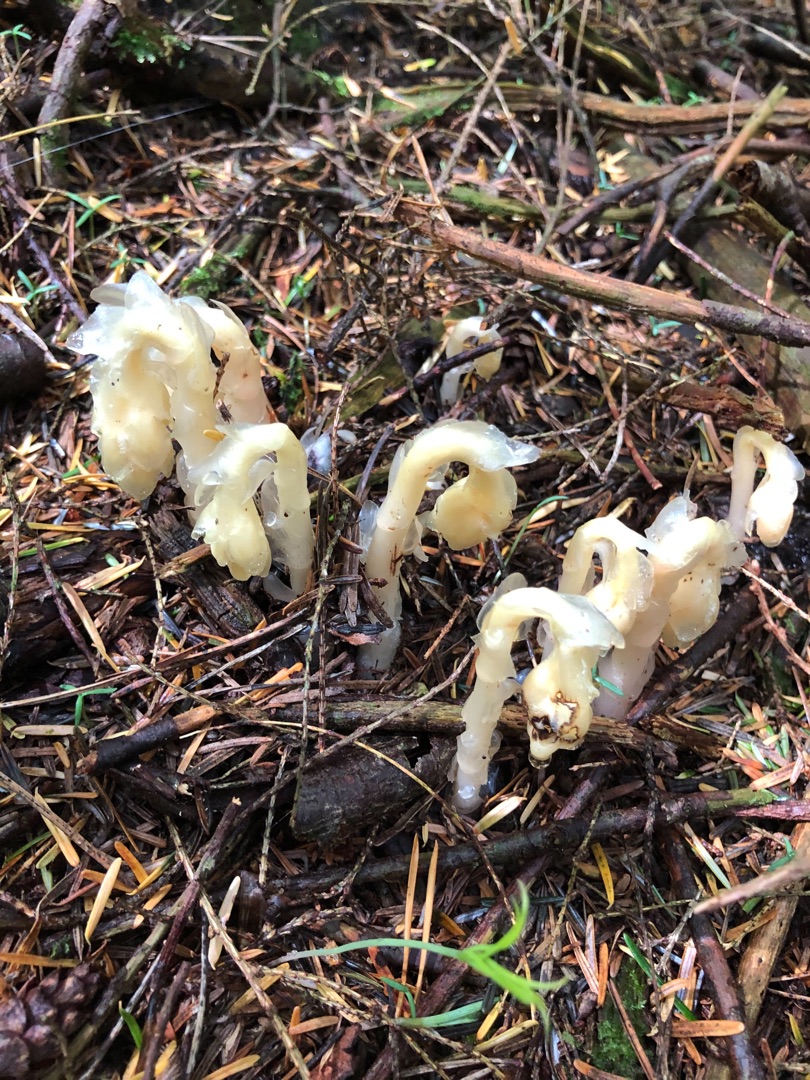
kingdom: Plantae
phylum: Tracheophyta
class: Magnoliopsida
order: Ericales
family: Ericaceae
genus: Hypopitys
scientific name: Hypopitys monotropa
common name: Snylterod
